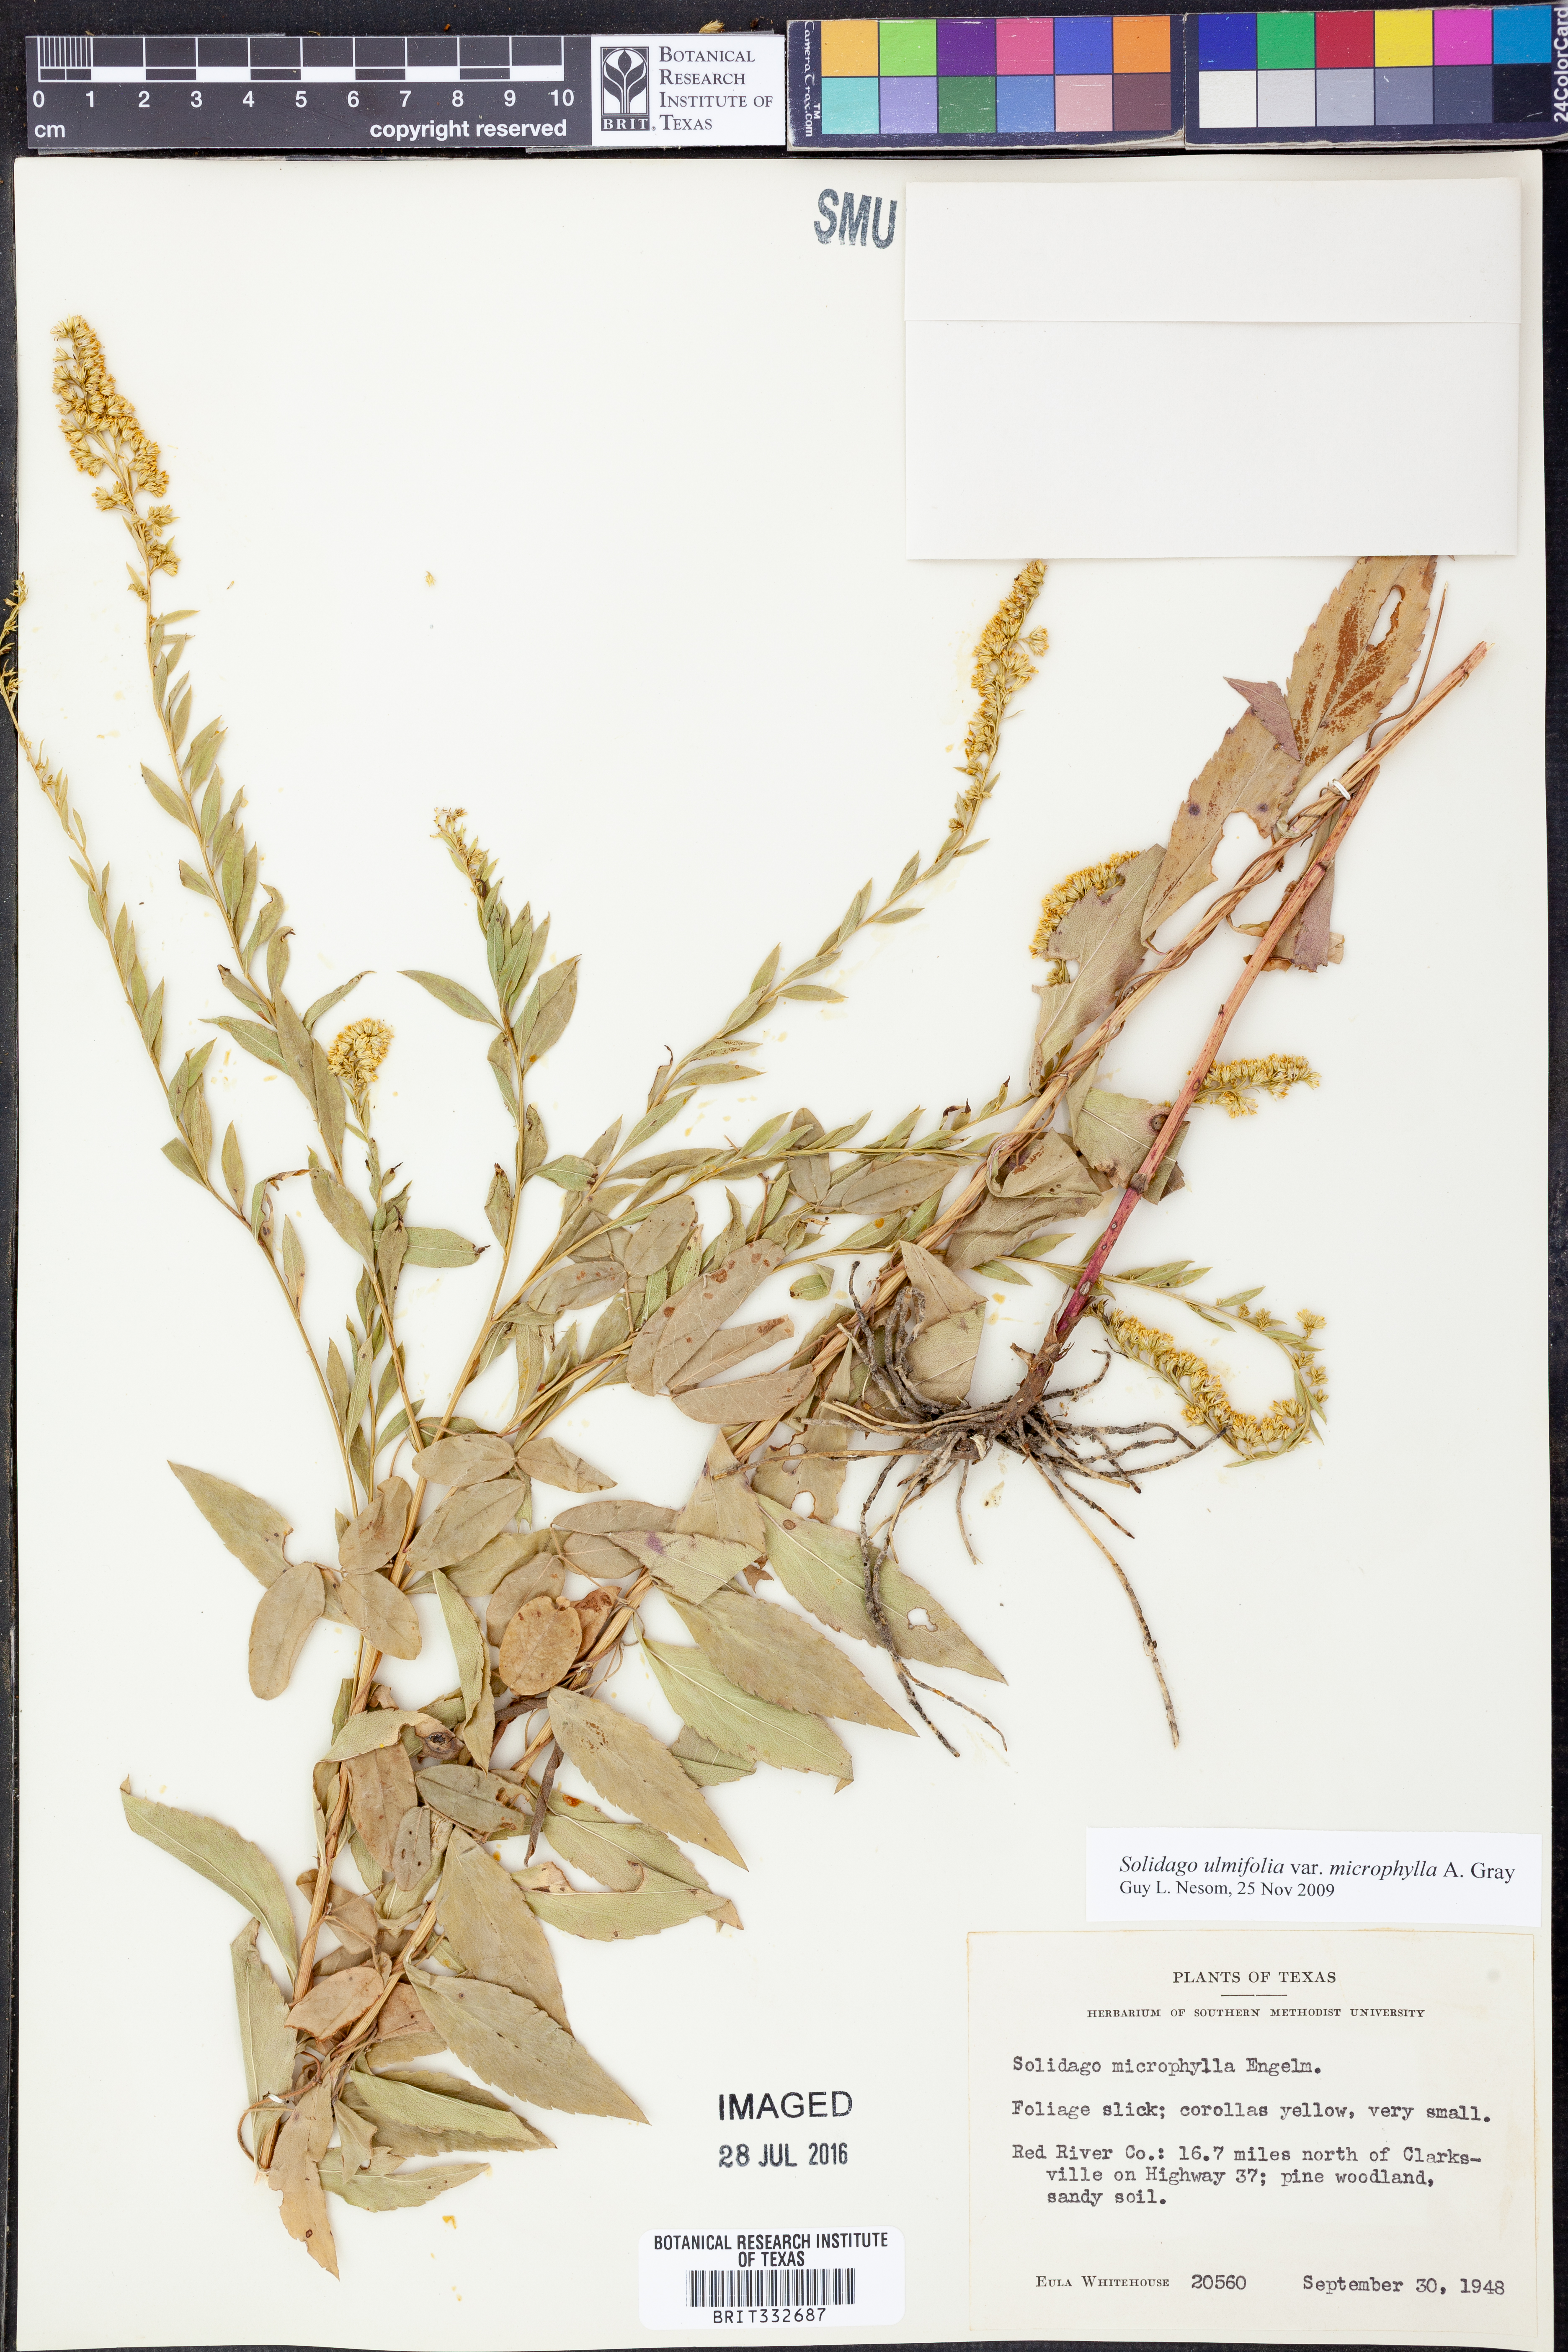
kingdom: Plantae
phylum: Tracheophyta
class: Magnoliopsida
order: Asterales
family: Asteraceae
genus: Solidago
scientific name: Solidago delicatula
